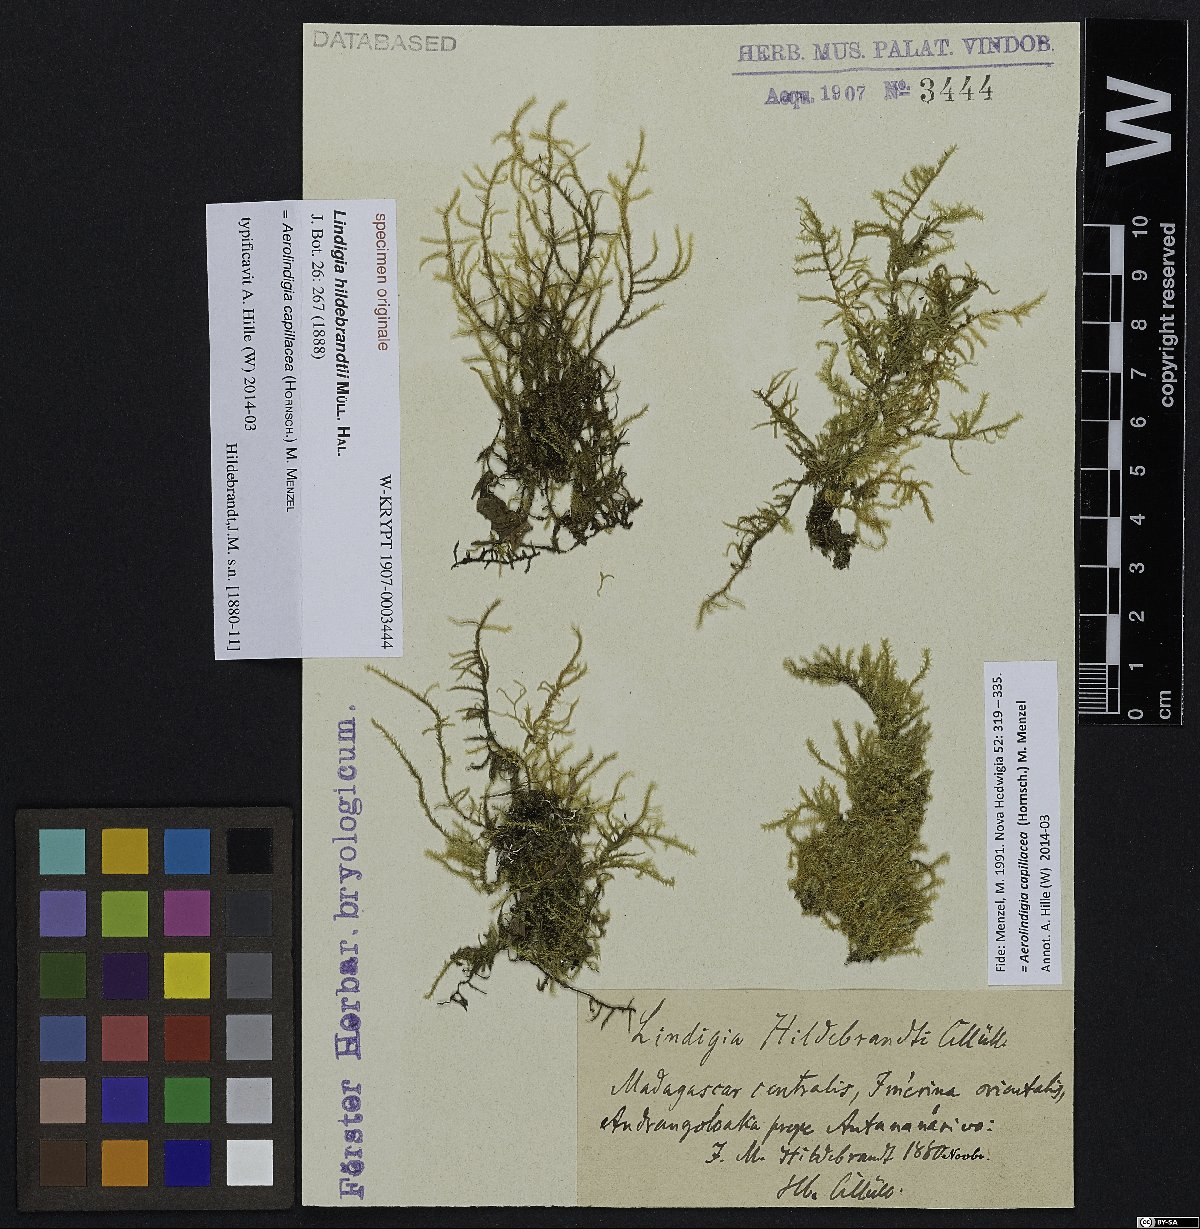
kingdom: Plantae
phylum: Bryophyta
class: Bryopsida
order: Hypnales
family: Brachytheciaceae
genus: Aerolindigia
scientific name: Aerolindigia capillacea
